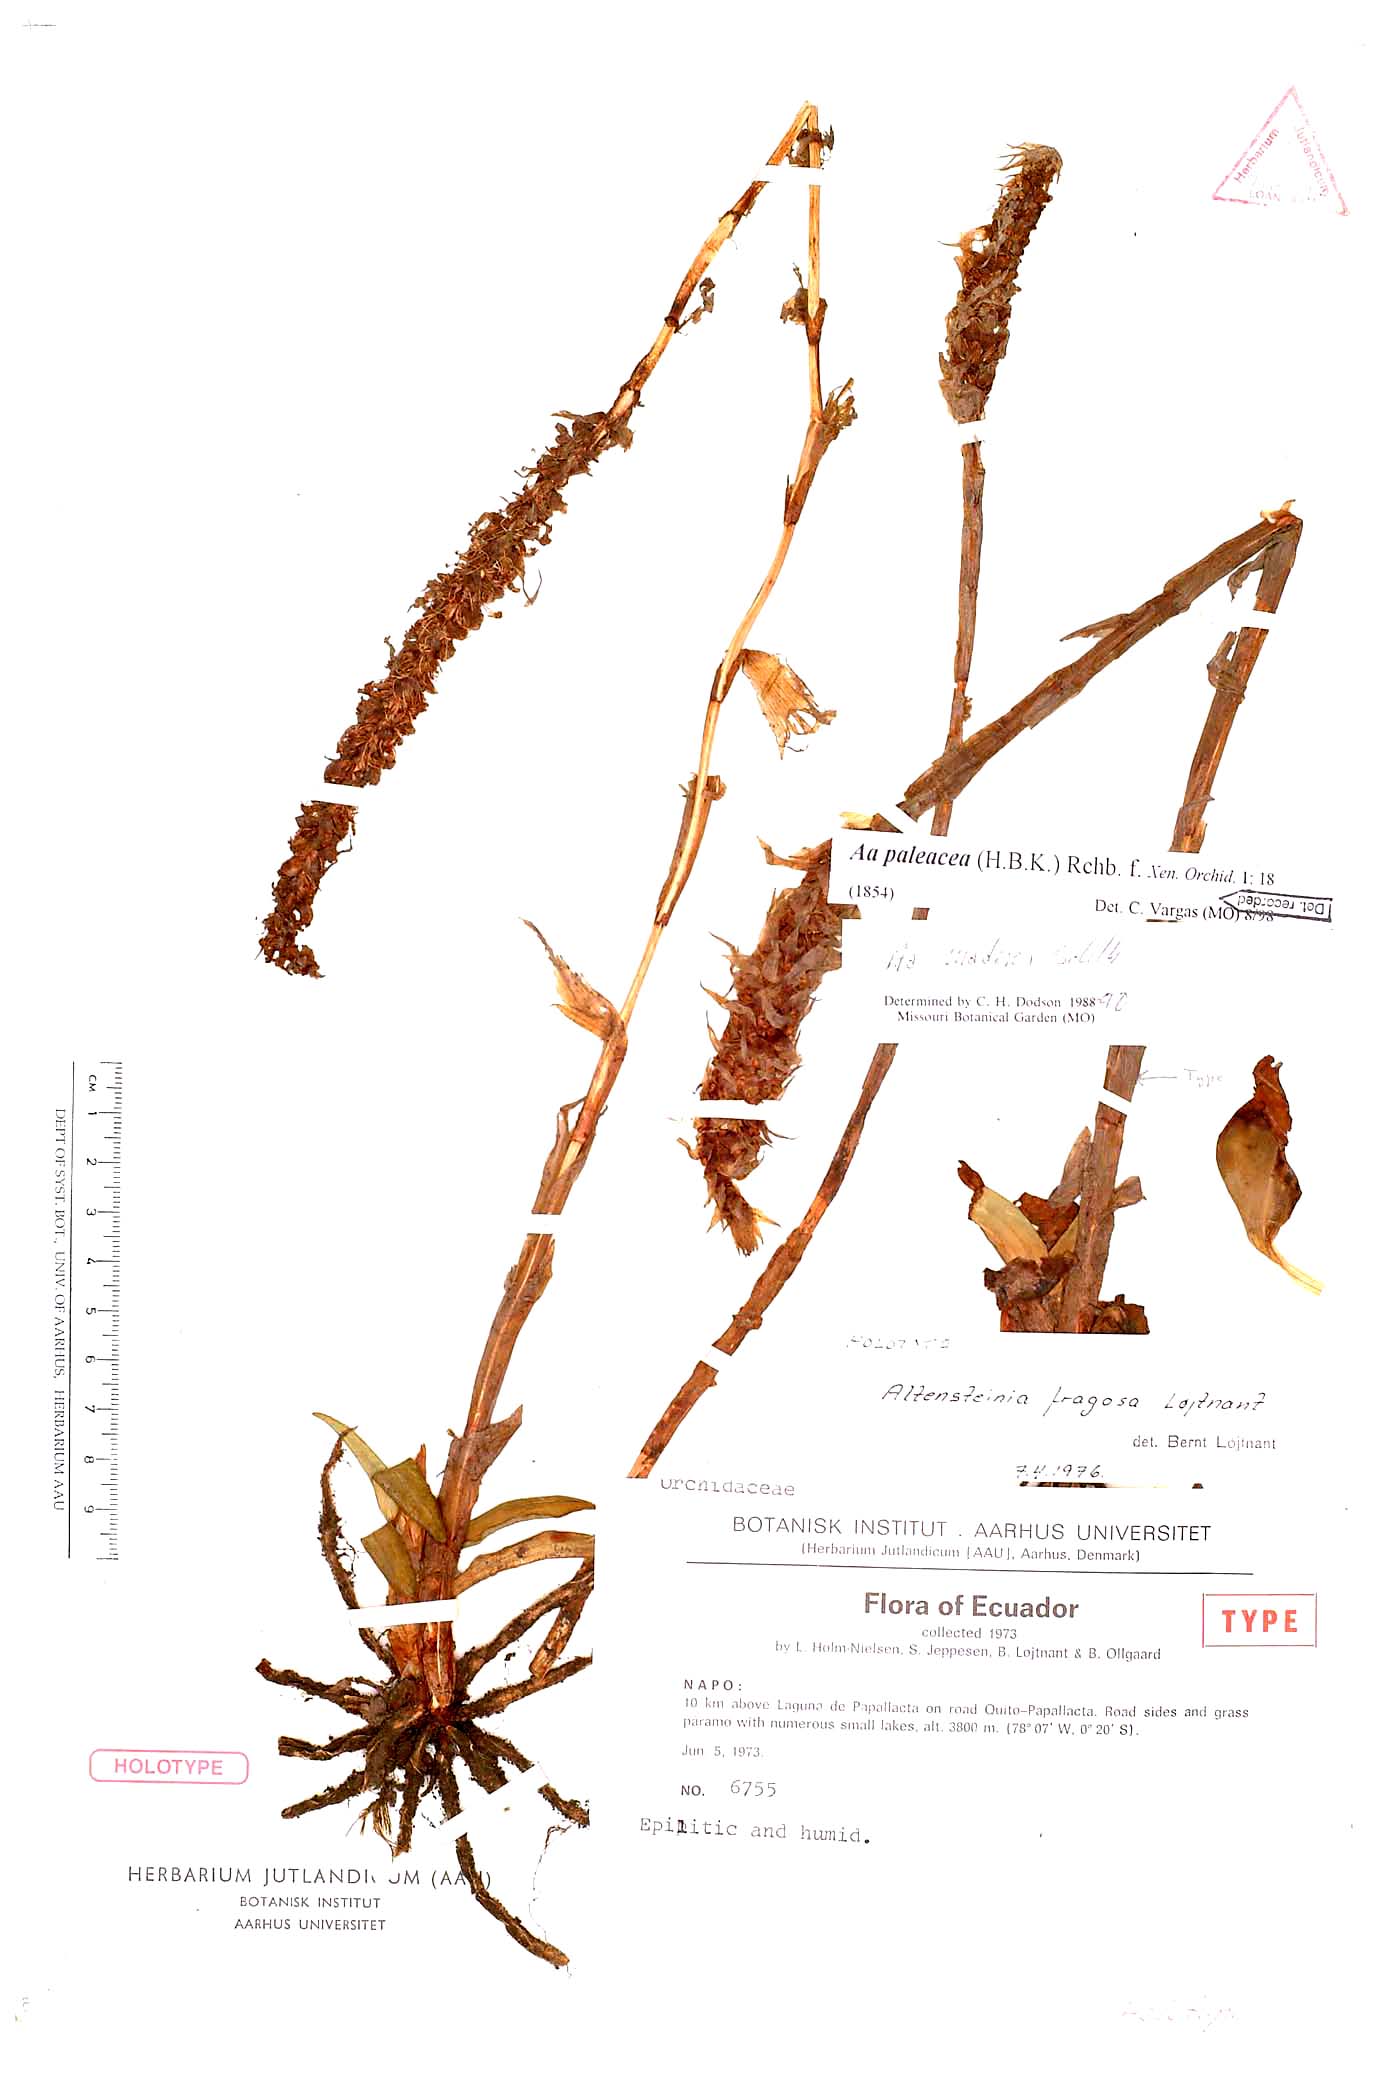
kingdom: Plantae
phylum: Tracheophyta
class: Liliopsida
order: Asparagales
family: Orchidaceae
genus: Aa
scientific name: Aa paleacea
